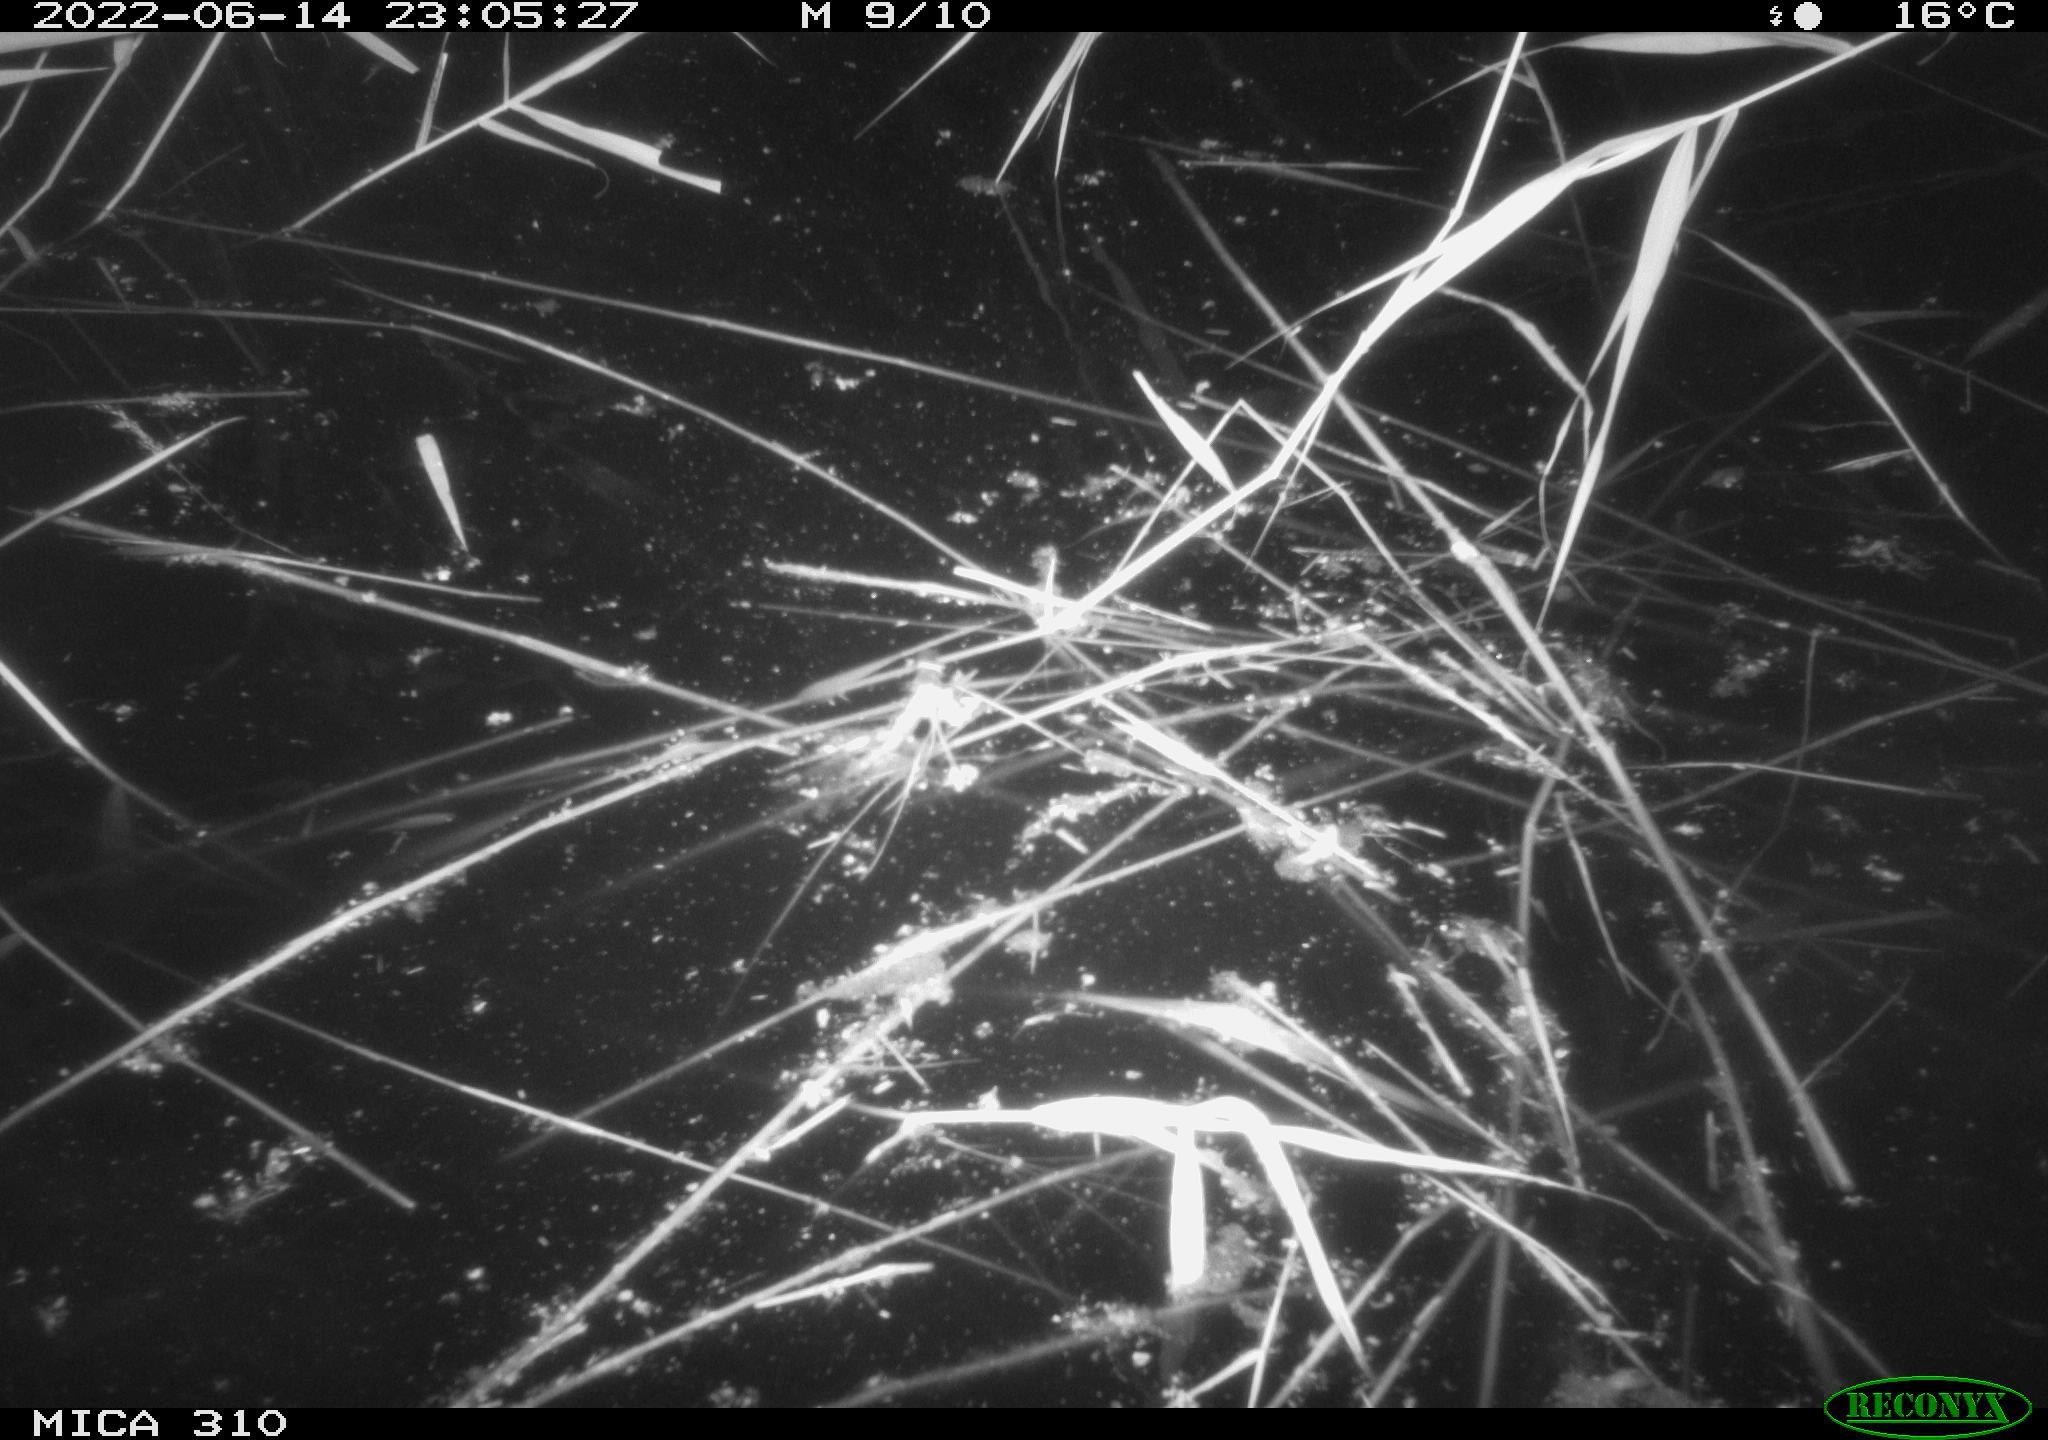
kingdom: Animalia
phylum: Chordata
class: Aves
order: Anseriformes
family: Anatidae
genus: Anas
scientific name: Anas platyrhynchos
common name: Mallard
